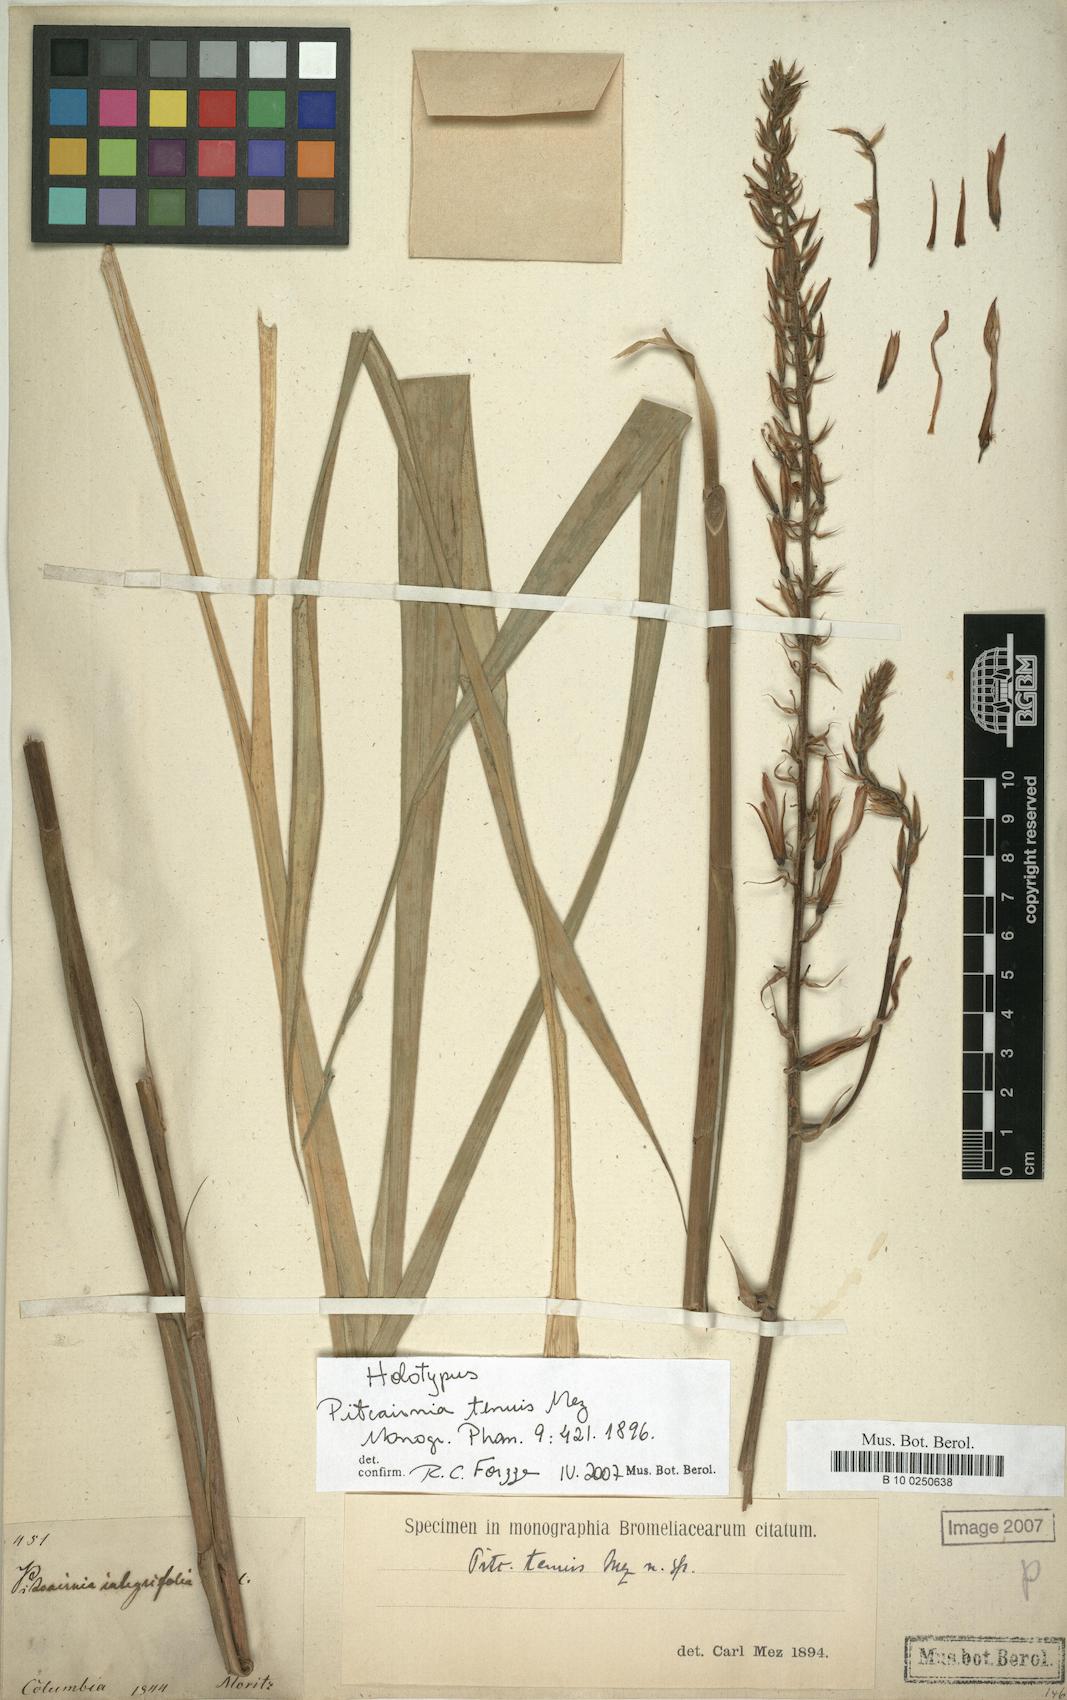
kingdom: Plantae
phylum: Tracheophyta
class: Liliopsida
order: Poales
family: Bromeliaceae
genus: Pitcairnia
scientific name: Pitcairnia integrifolia
